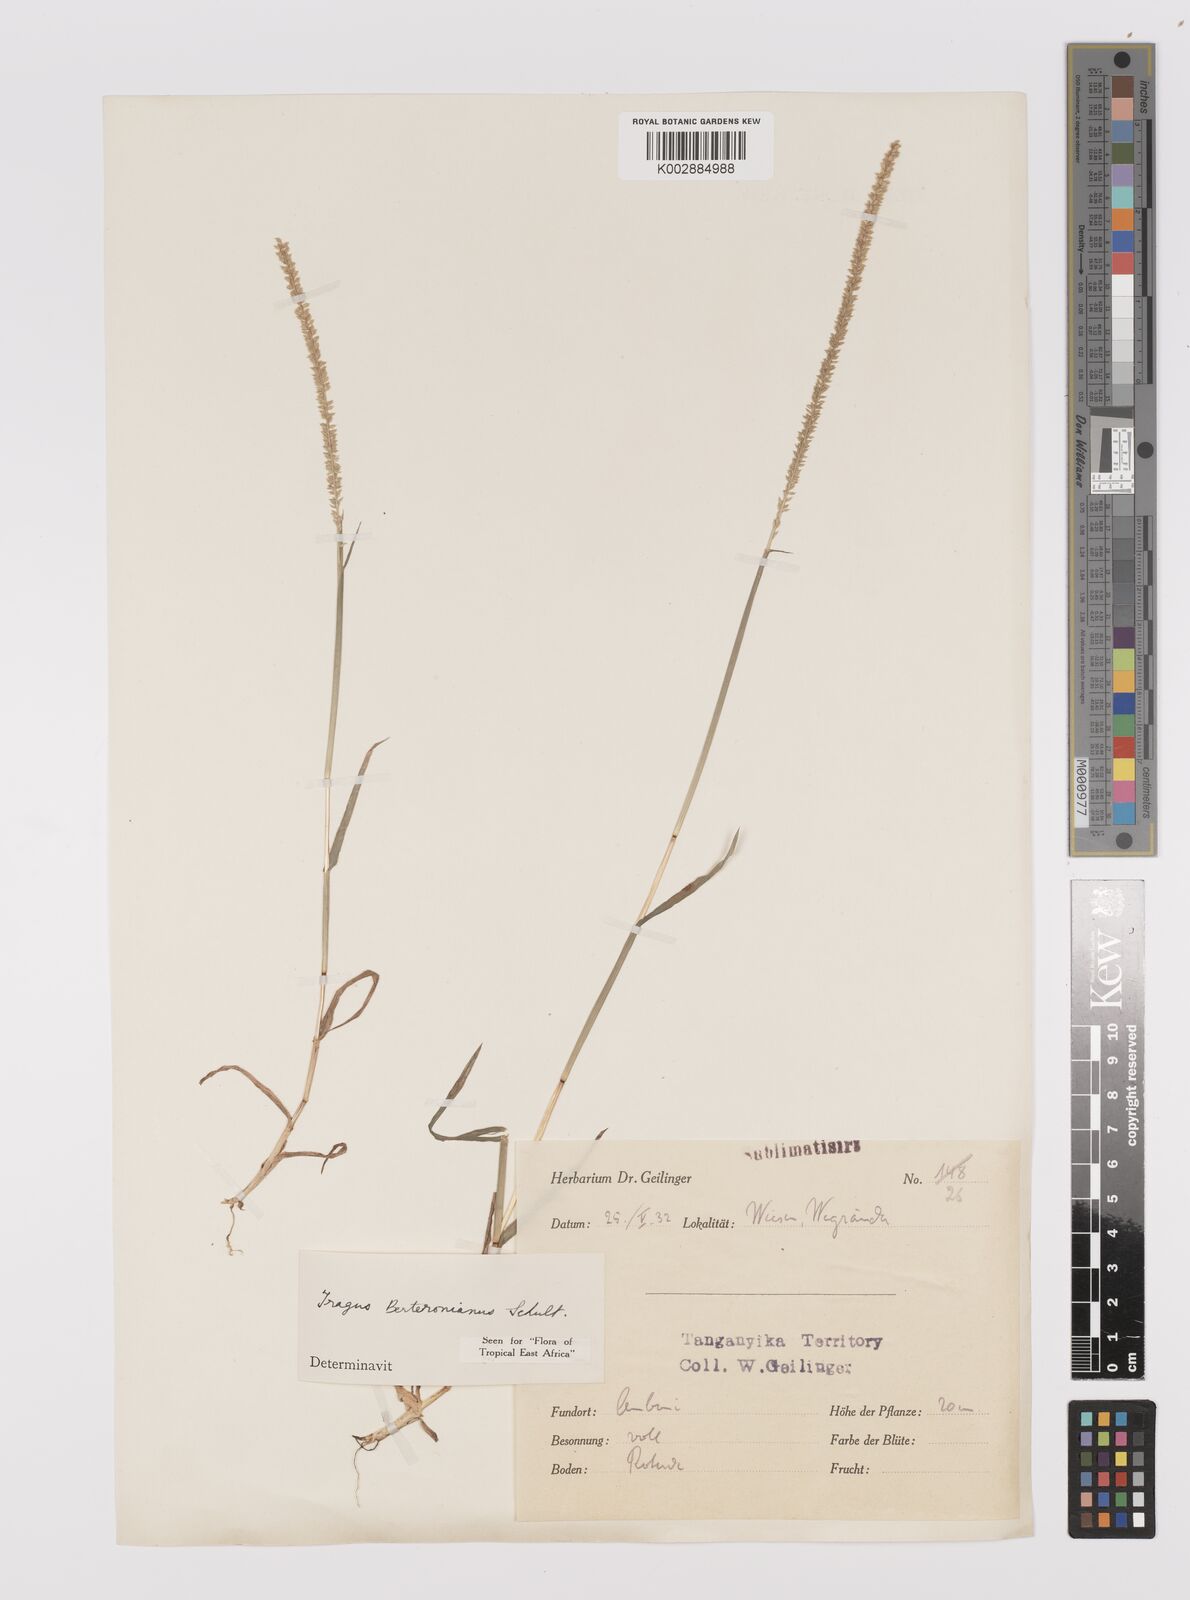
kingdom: Plantae
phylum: Tracheophyta
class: Liliopsida
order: Poales
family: Poaceae
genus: Tragus
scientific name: Tragus berteronianus
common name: African bur-grass
